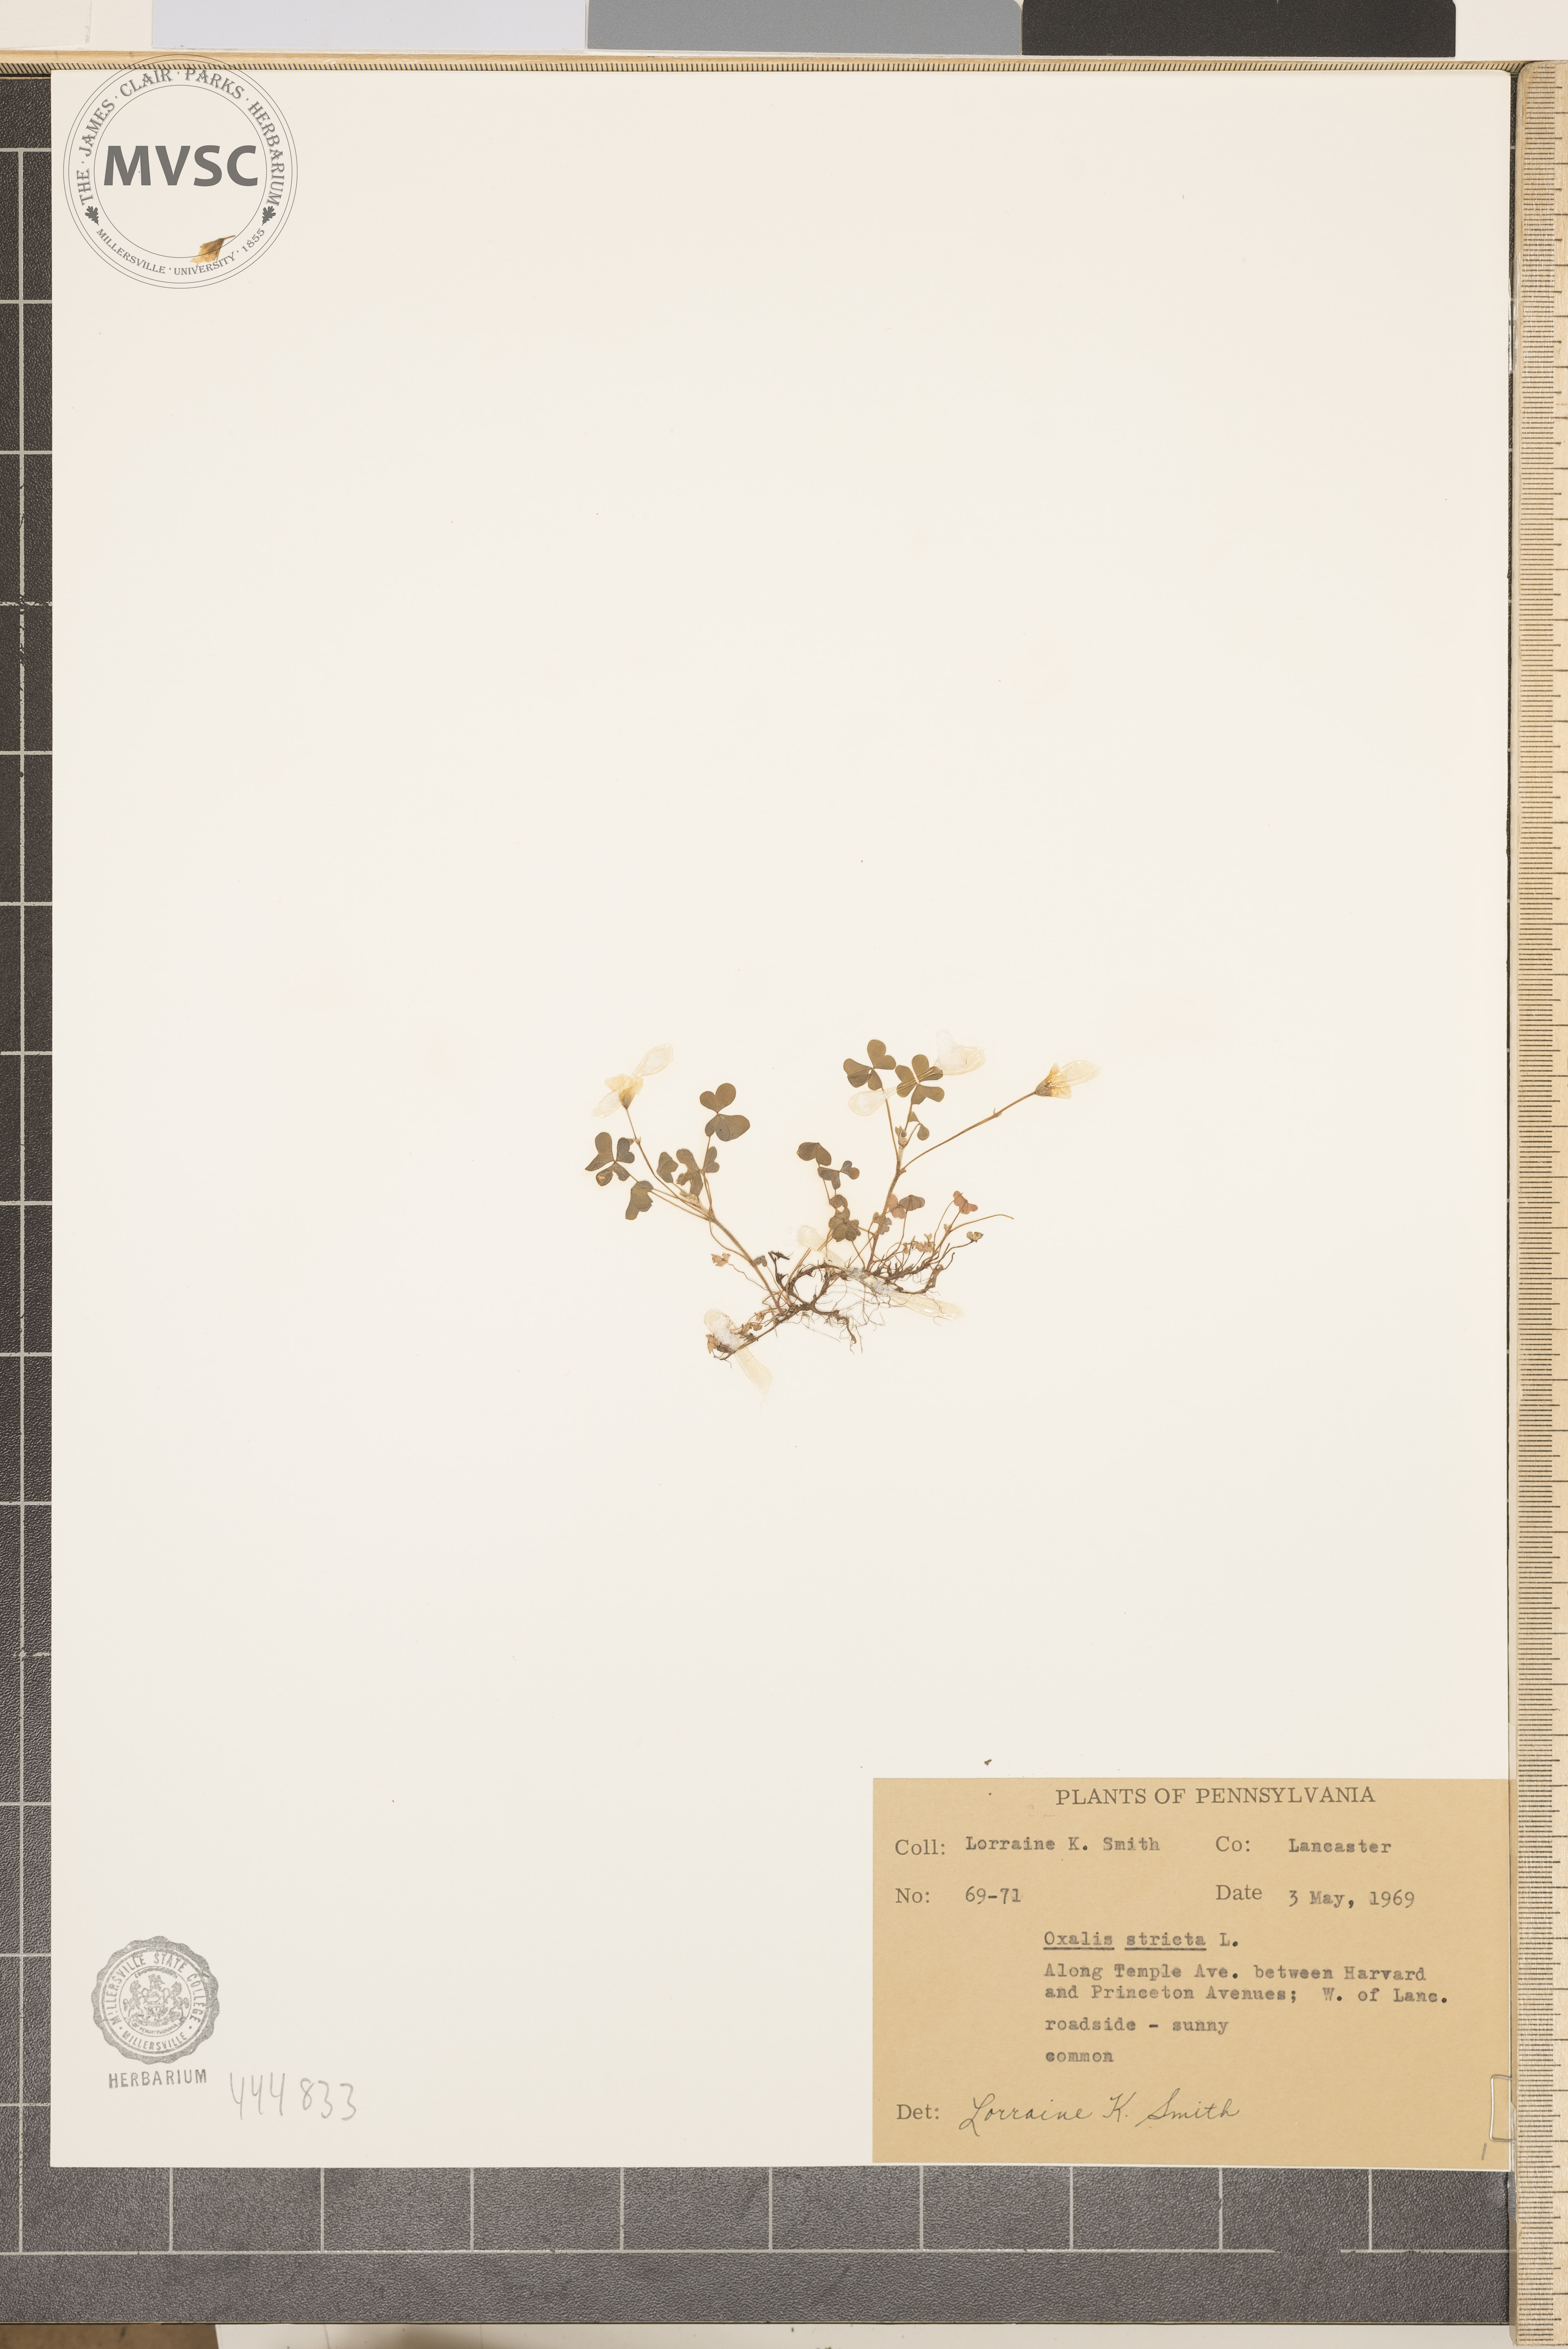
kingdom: Plantae
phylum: Tracheophyta
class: Magnoliopsida
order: Oxalidales
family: Oxalidaceae
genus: Oxalis
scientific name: Oxalis stricta
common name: Upright yellow-sorrel
